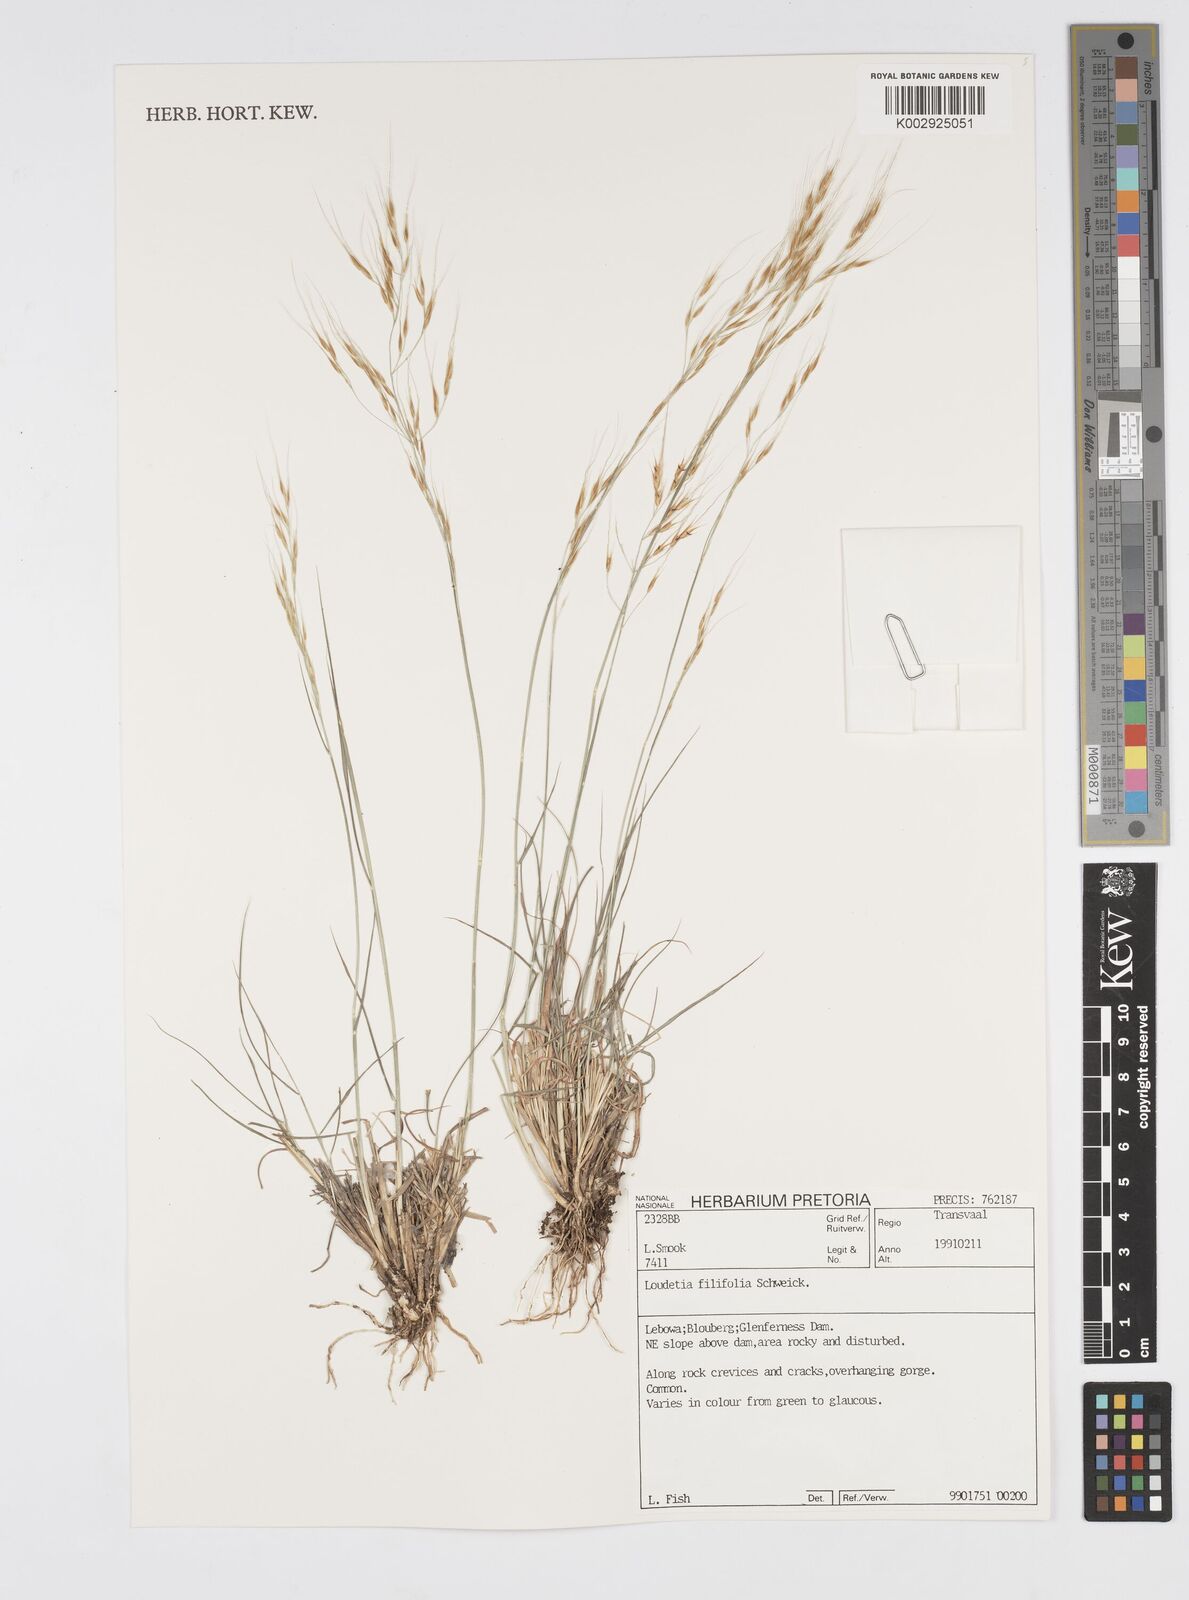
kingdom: Plantae
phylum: Tracheophyta
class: Liliopsida
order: Poales
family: Poaceae
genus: Loudetia
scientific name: Loudetia filifolia
